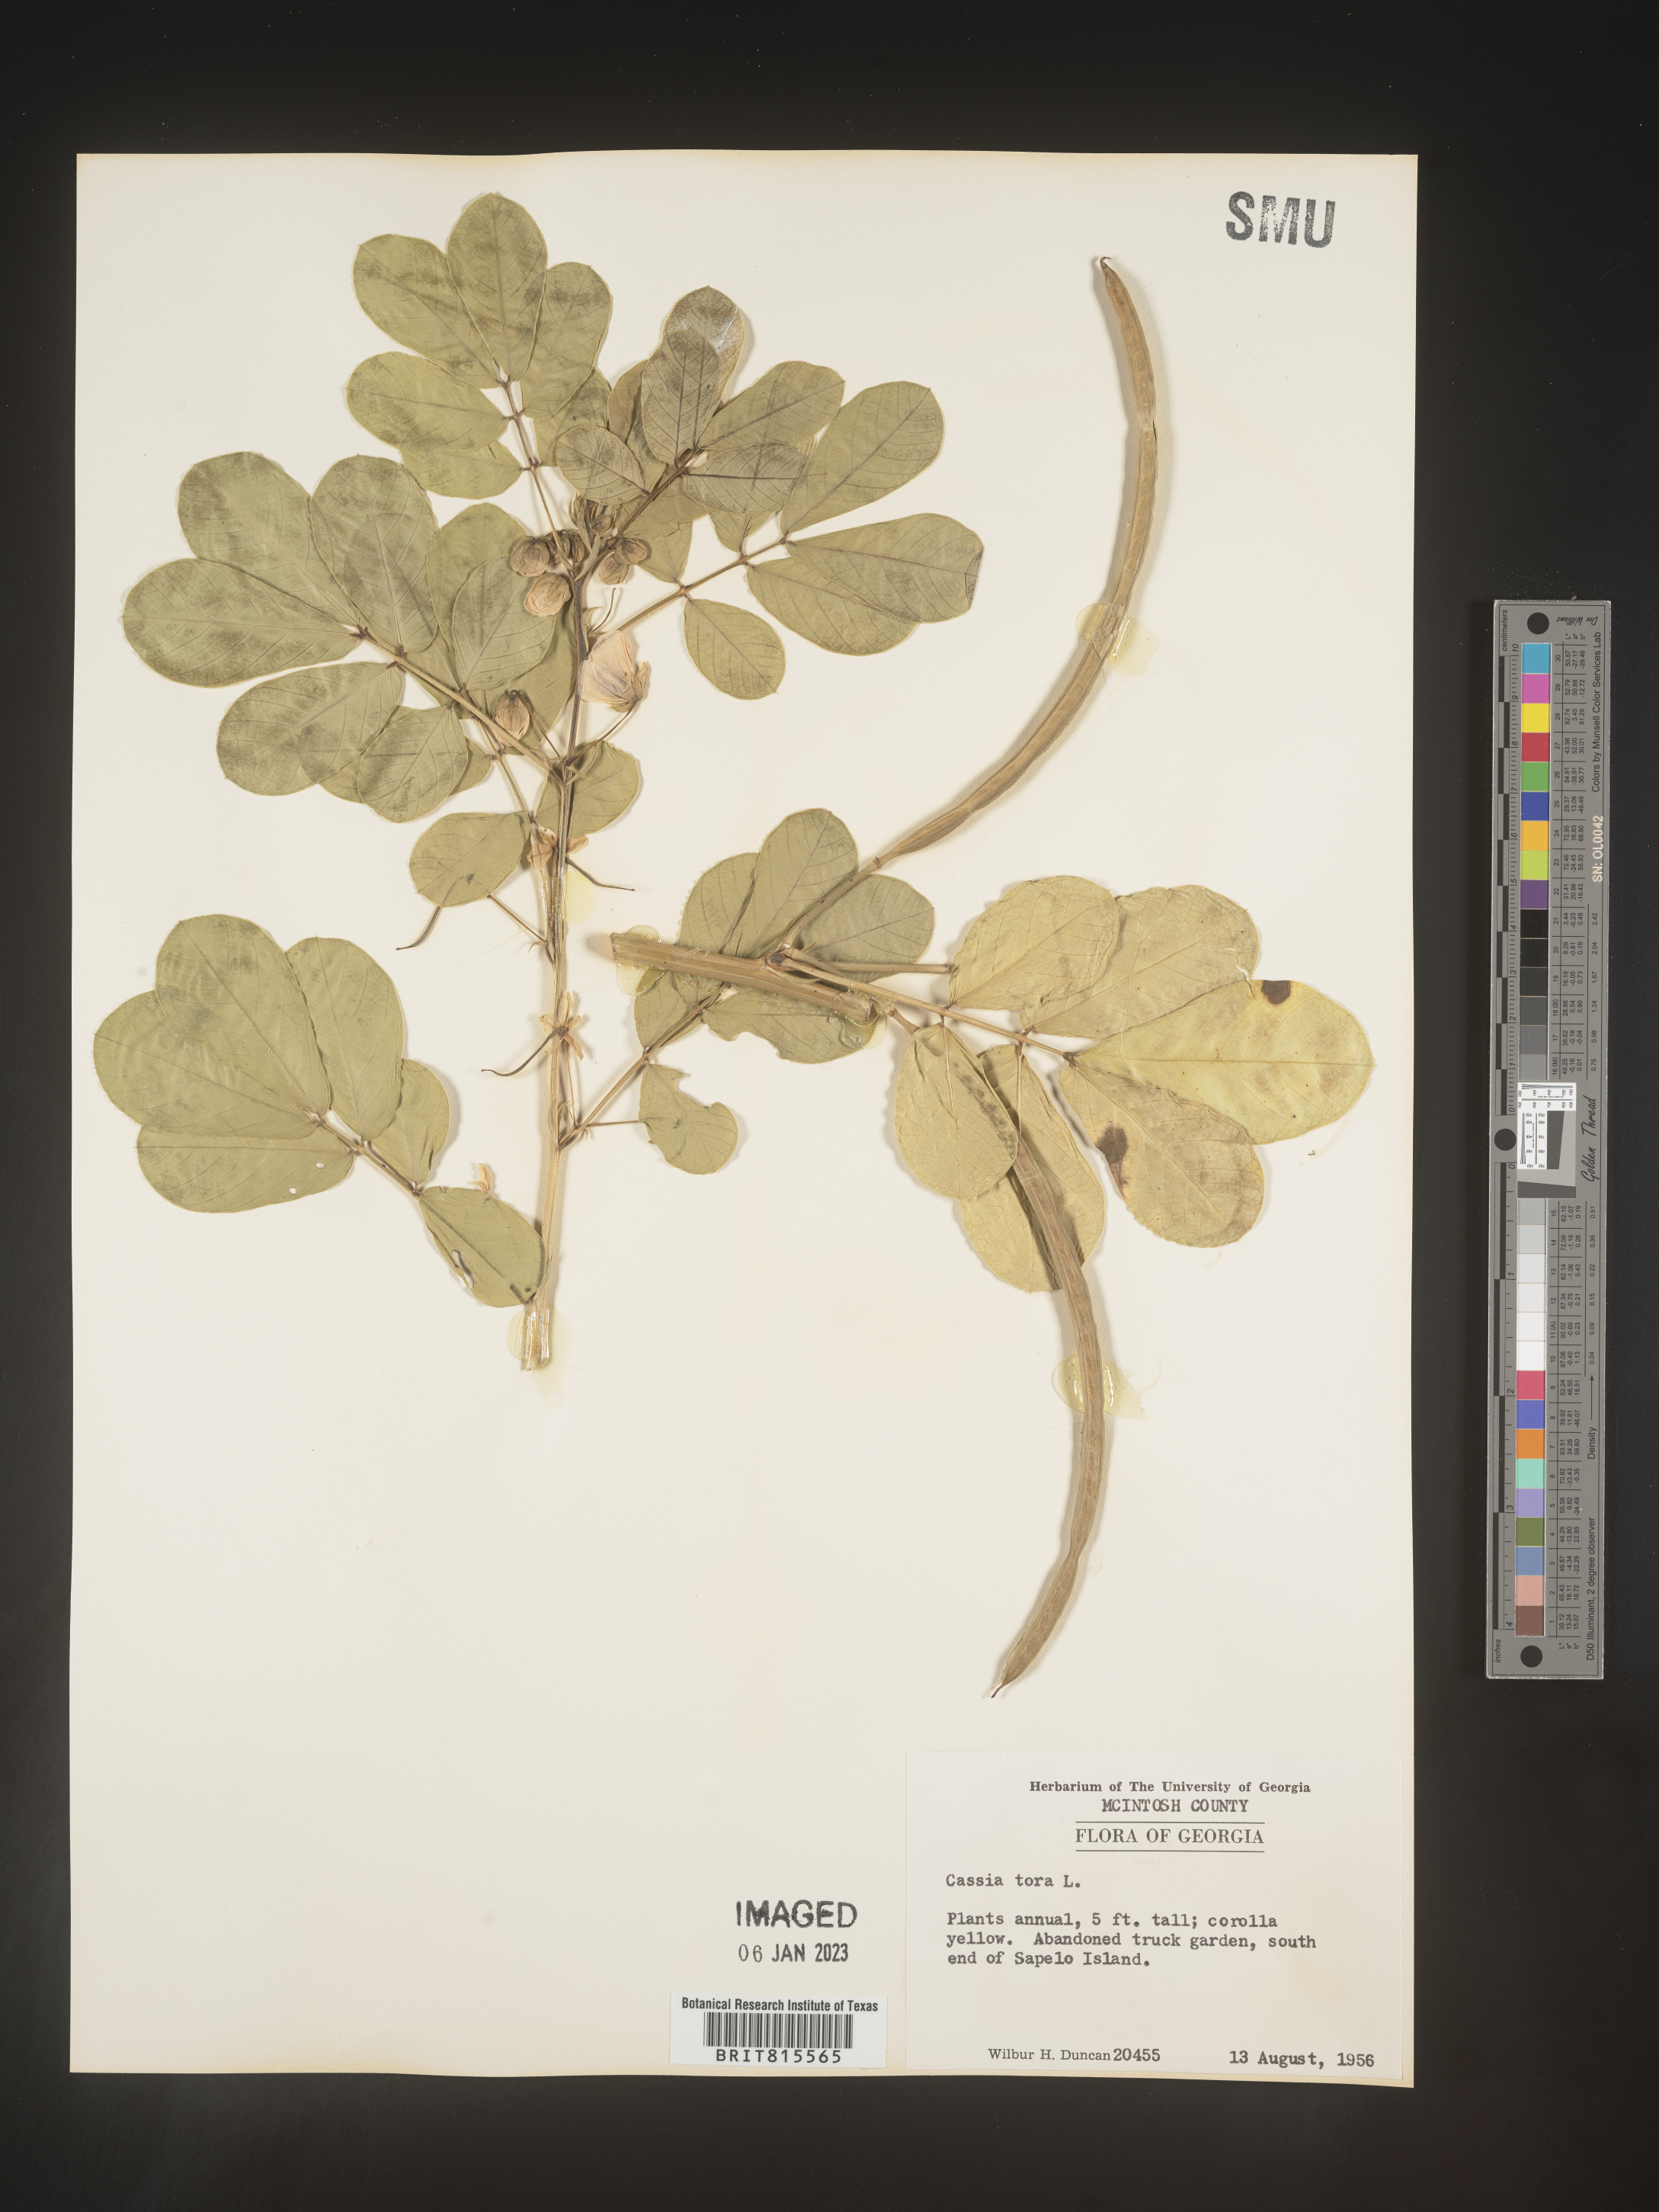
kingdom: Plantae
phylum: Tracheophyta
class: Magnoliopsida
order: Fabales
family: Fabaceae
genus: Senna
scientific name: Senna tora
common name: Sickle senna
